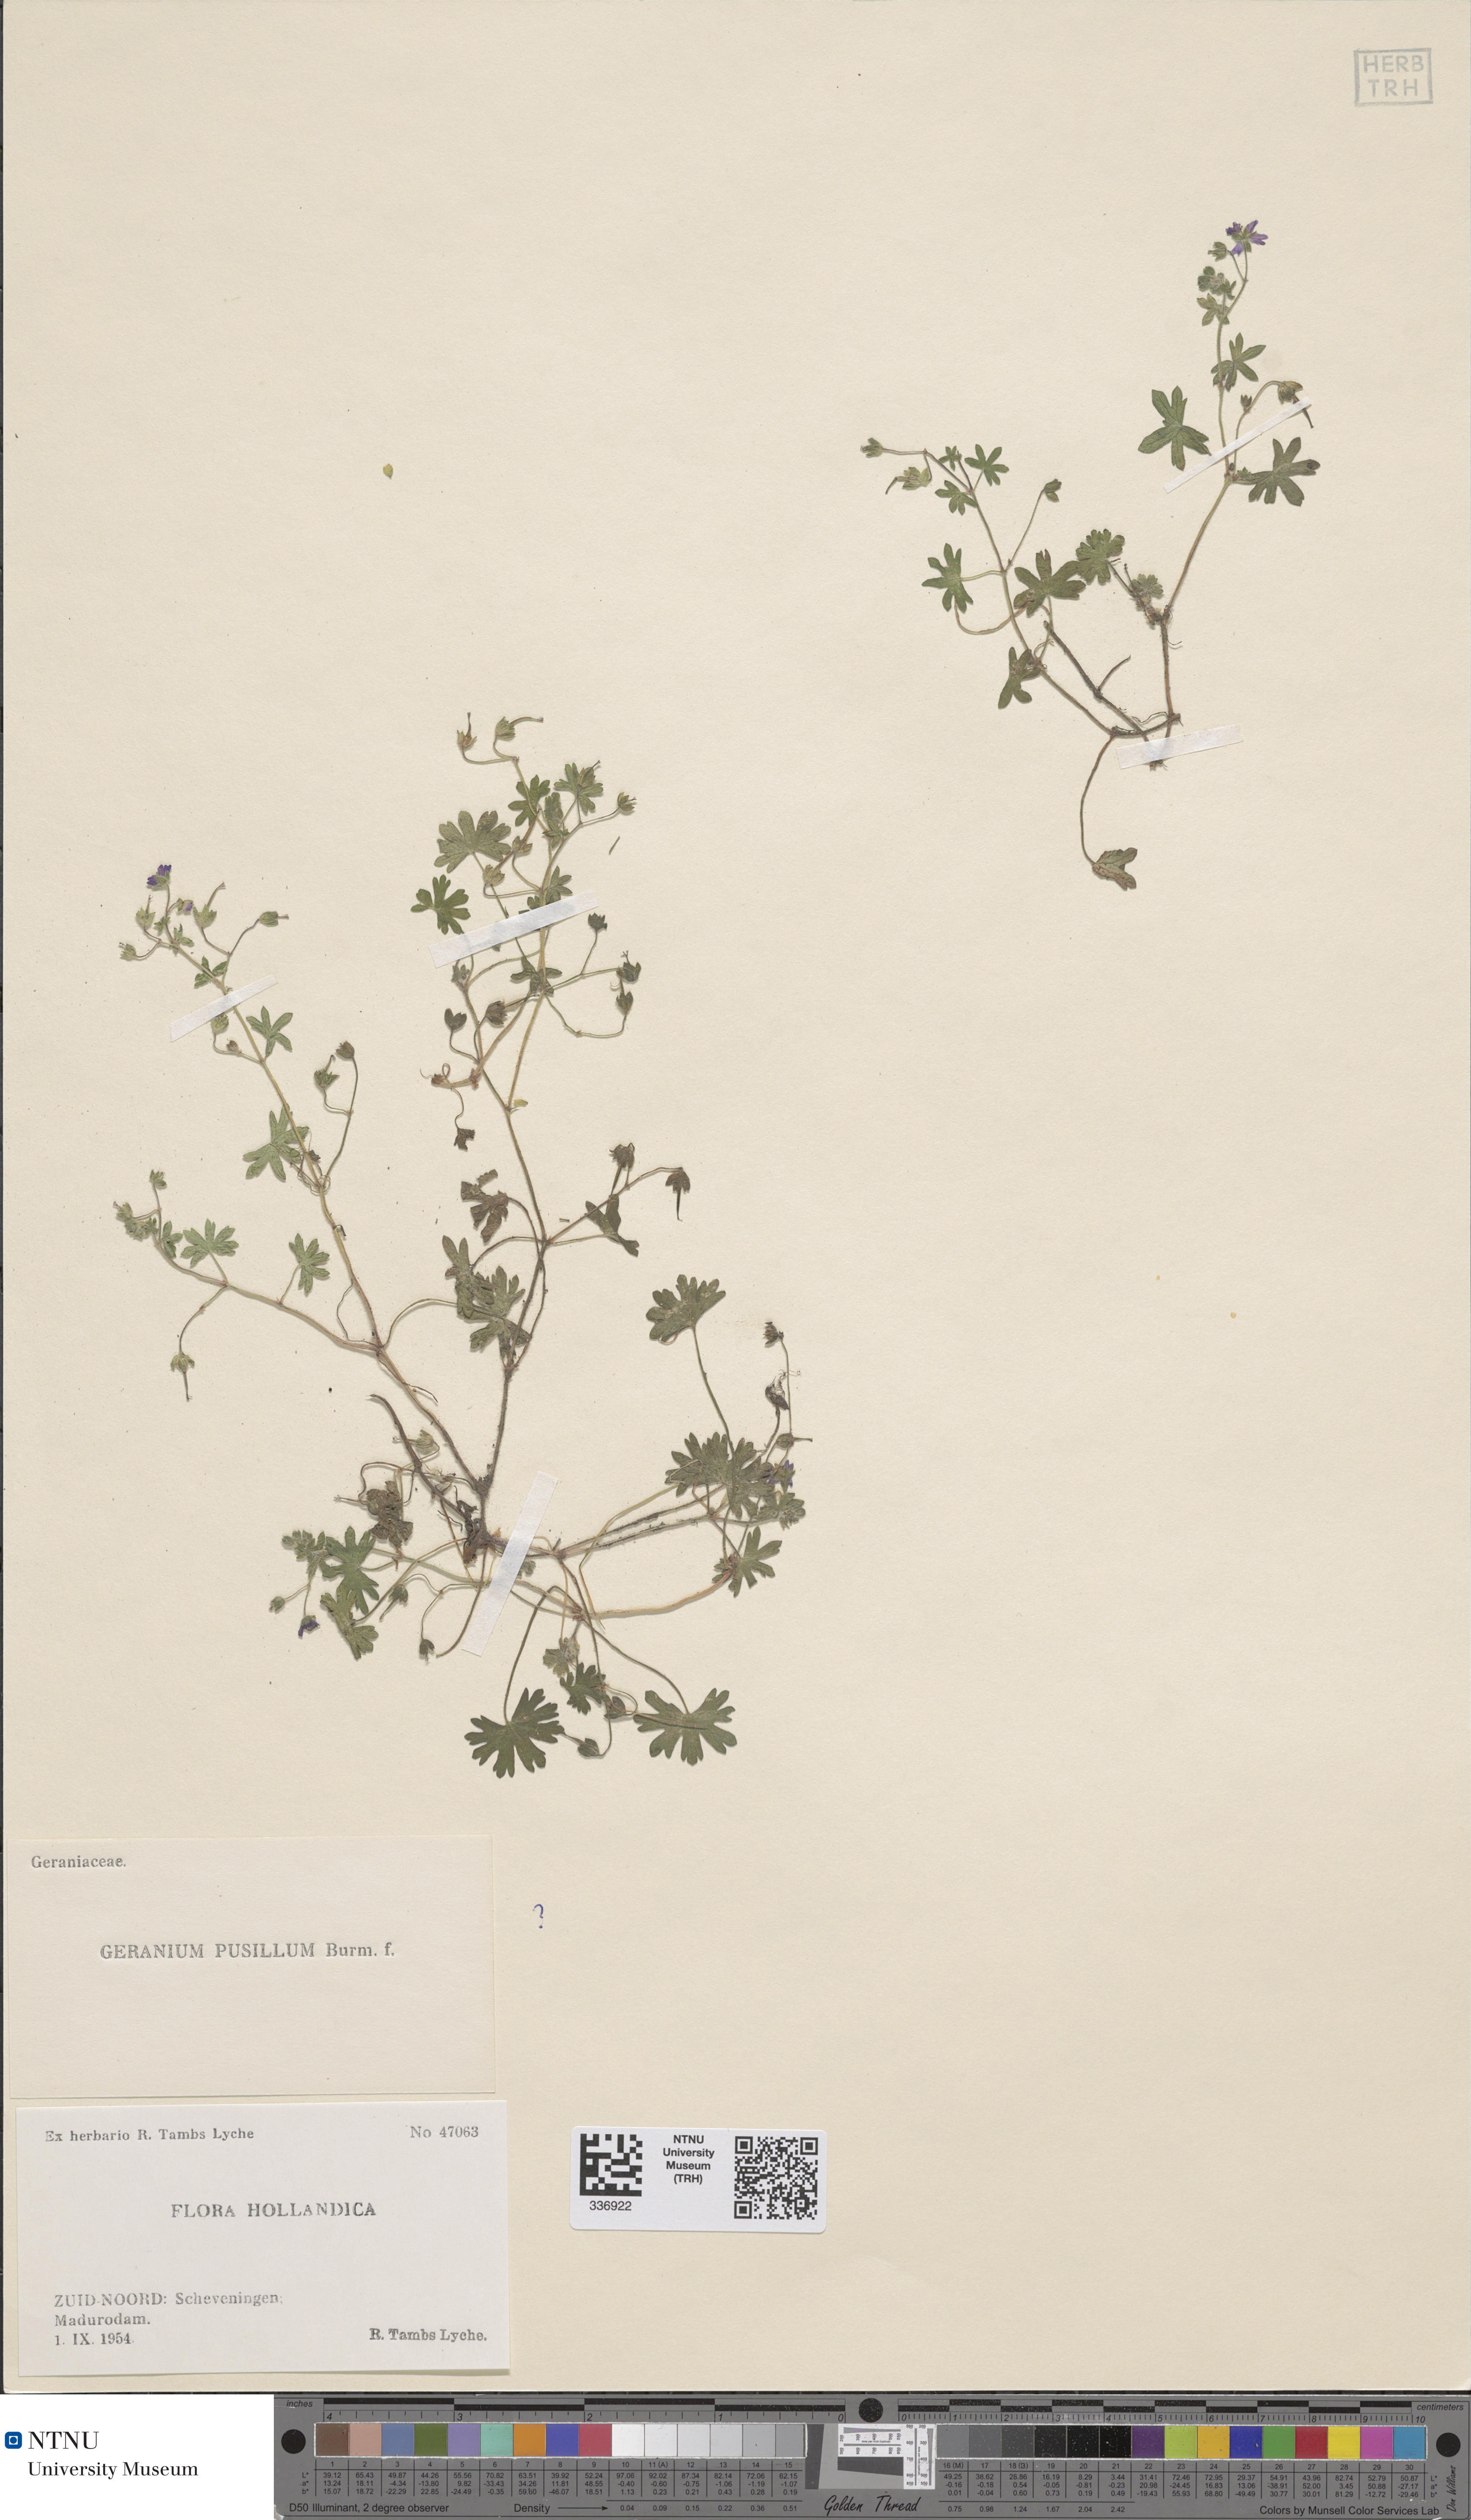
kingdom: Plantae
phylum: Tracheophyta
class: Magnoliopsida
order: Geraniales
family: Geraniaceae
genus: Geranium
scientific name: Geranium pusillum
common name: Small geranium
